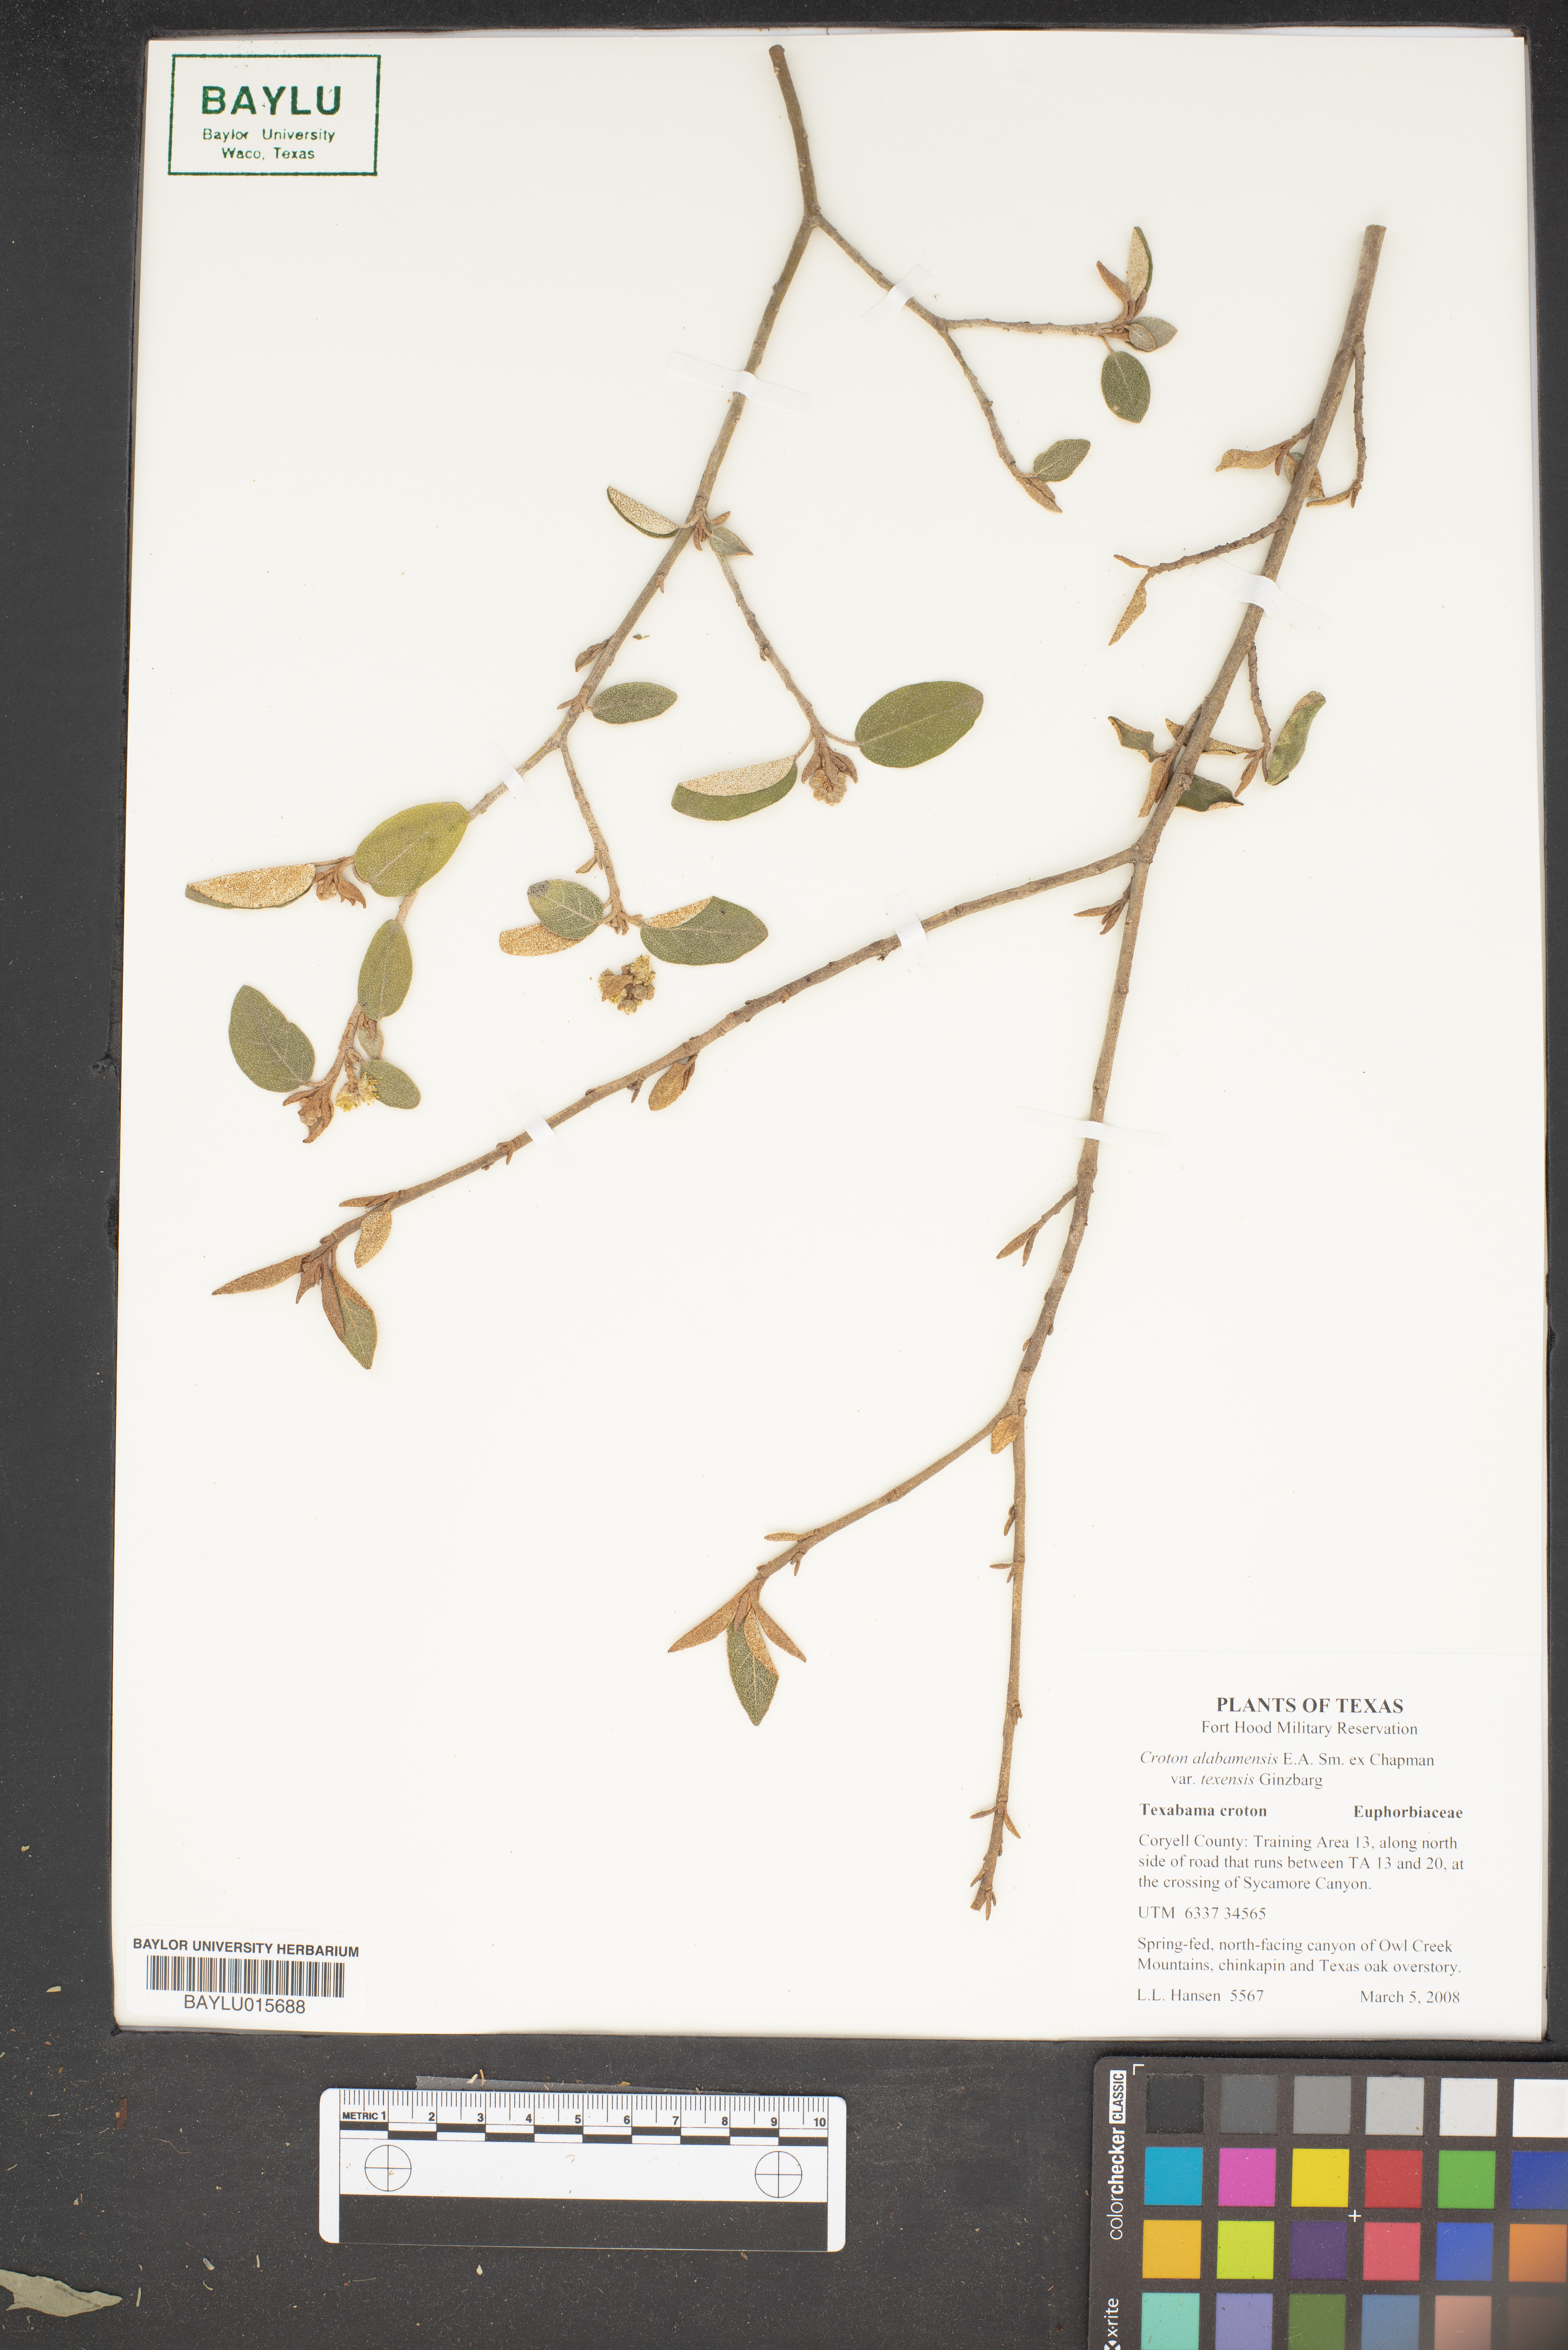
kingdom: Plantae
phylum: Tracheophyta
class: Magnoliopsida
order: Malpighiales
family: Euphorbiaceae
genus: Croton
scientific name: Croton alabamensis
